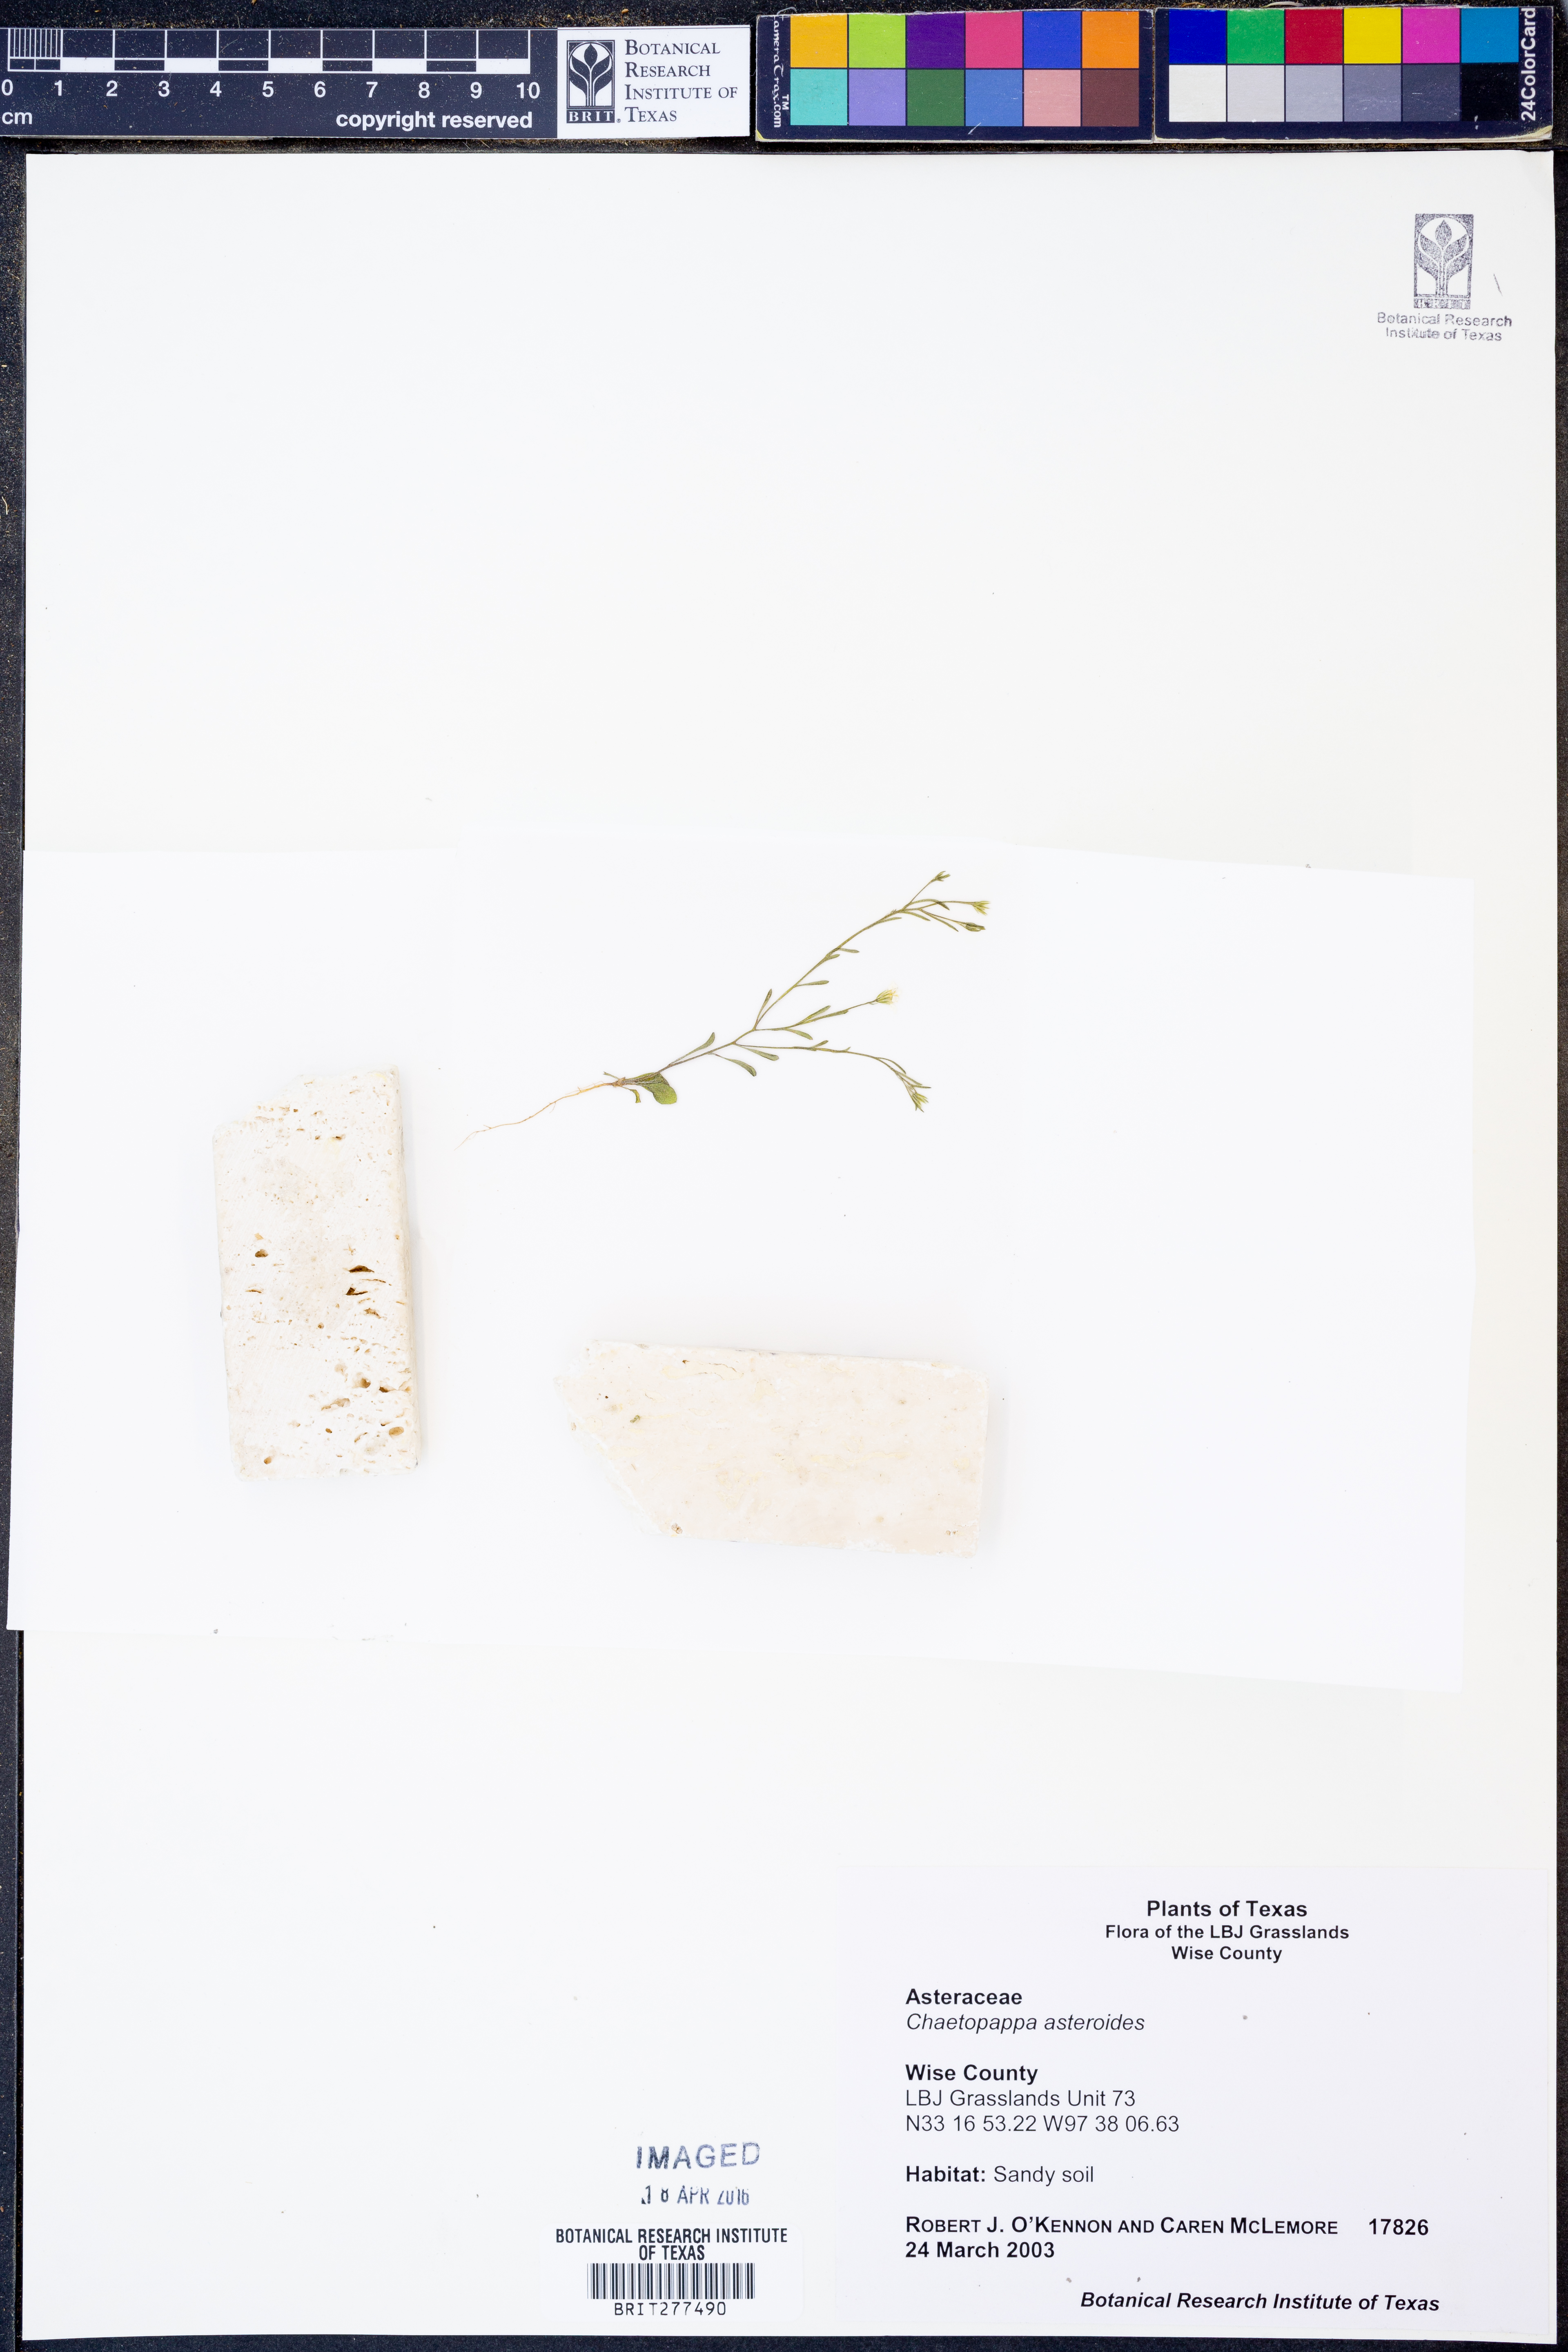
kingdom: Plantae
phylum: Tracheophyta
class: Magnoliopsida
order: Asterales
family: Asteraceae
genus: Chaetopappa
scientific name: Chaetopappa asteroides
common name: Tiny lazy daisy
